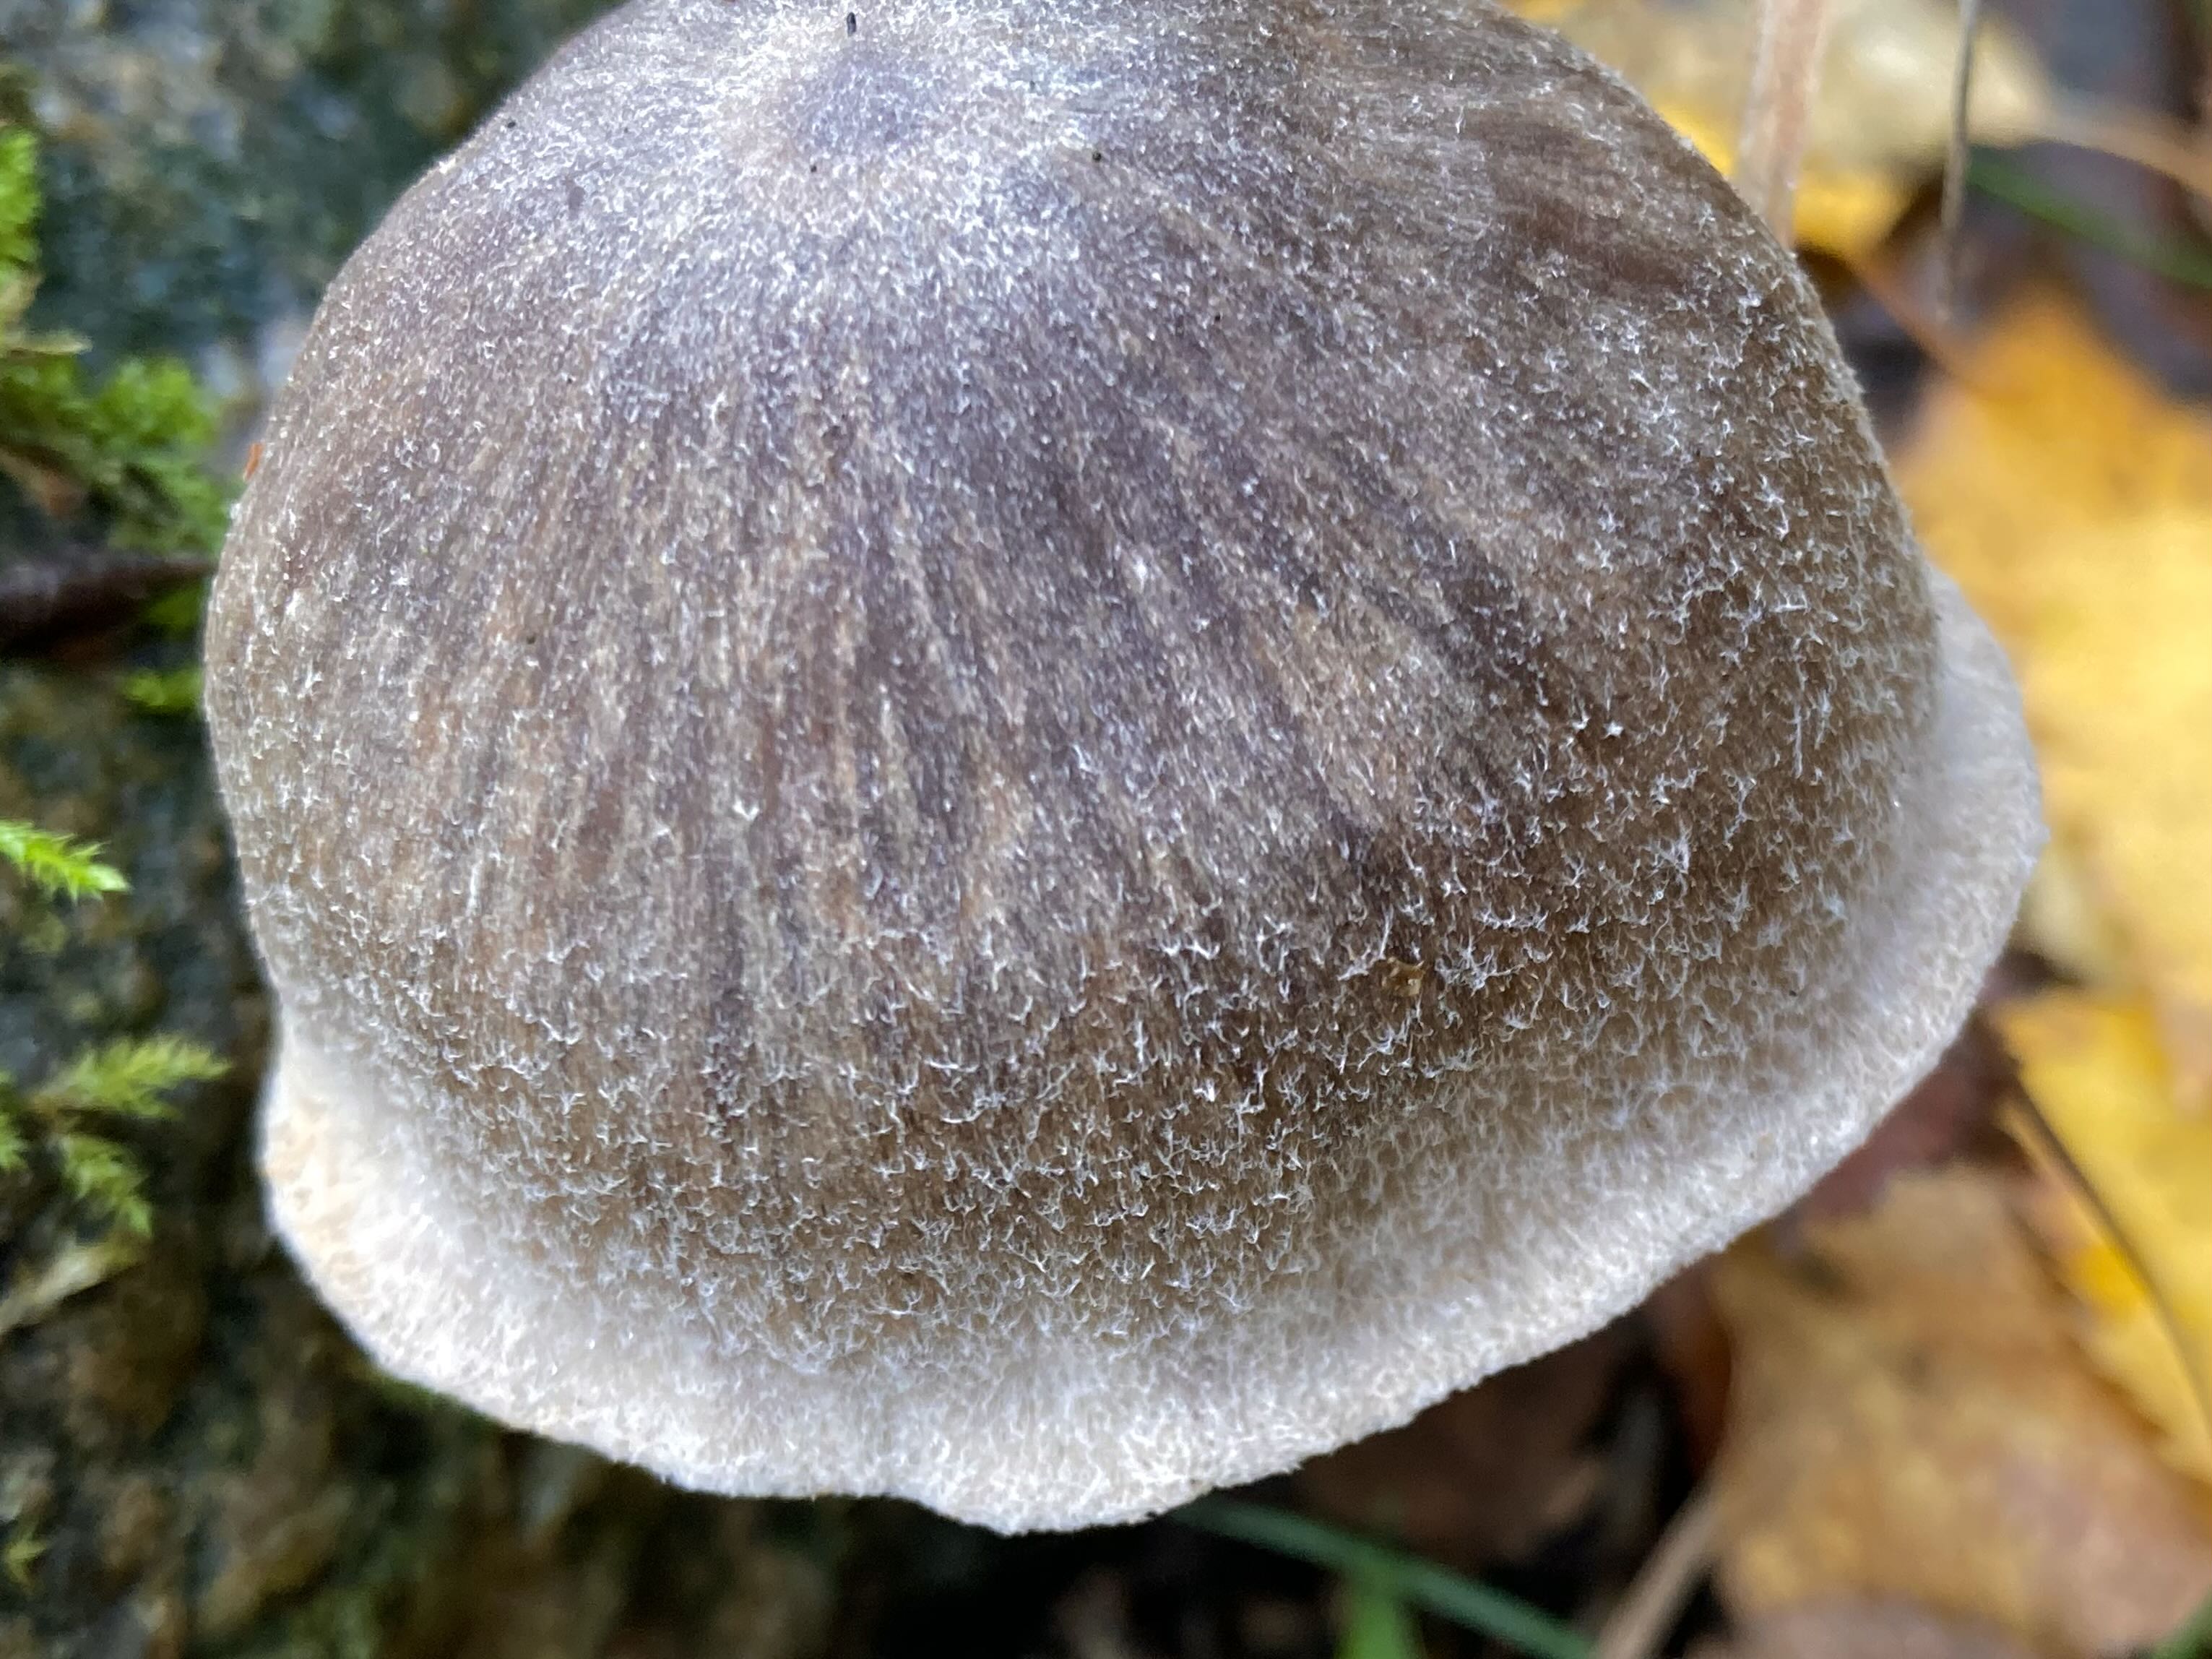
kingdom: Fungi
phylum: Basidiomycota
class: Agaricomycetes
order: Agaricales
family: Cortinariaceae
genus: Cortinarius
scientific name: Cortinarius hemitrichus
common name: hvidfnugget slørhat
